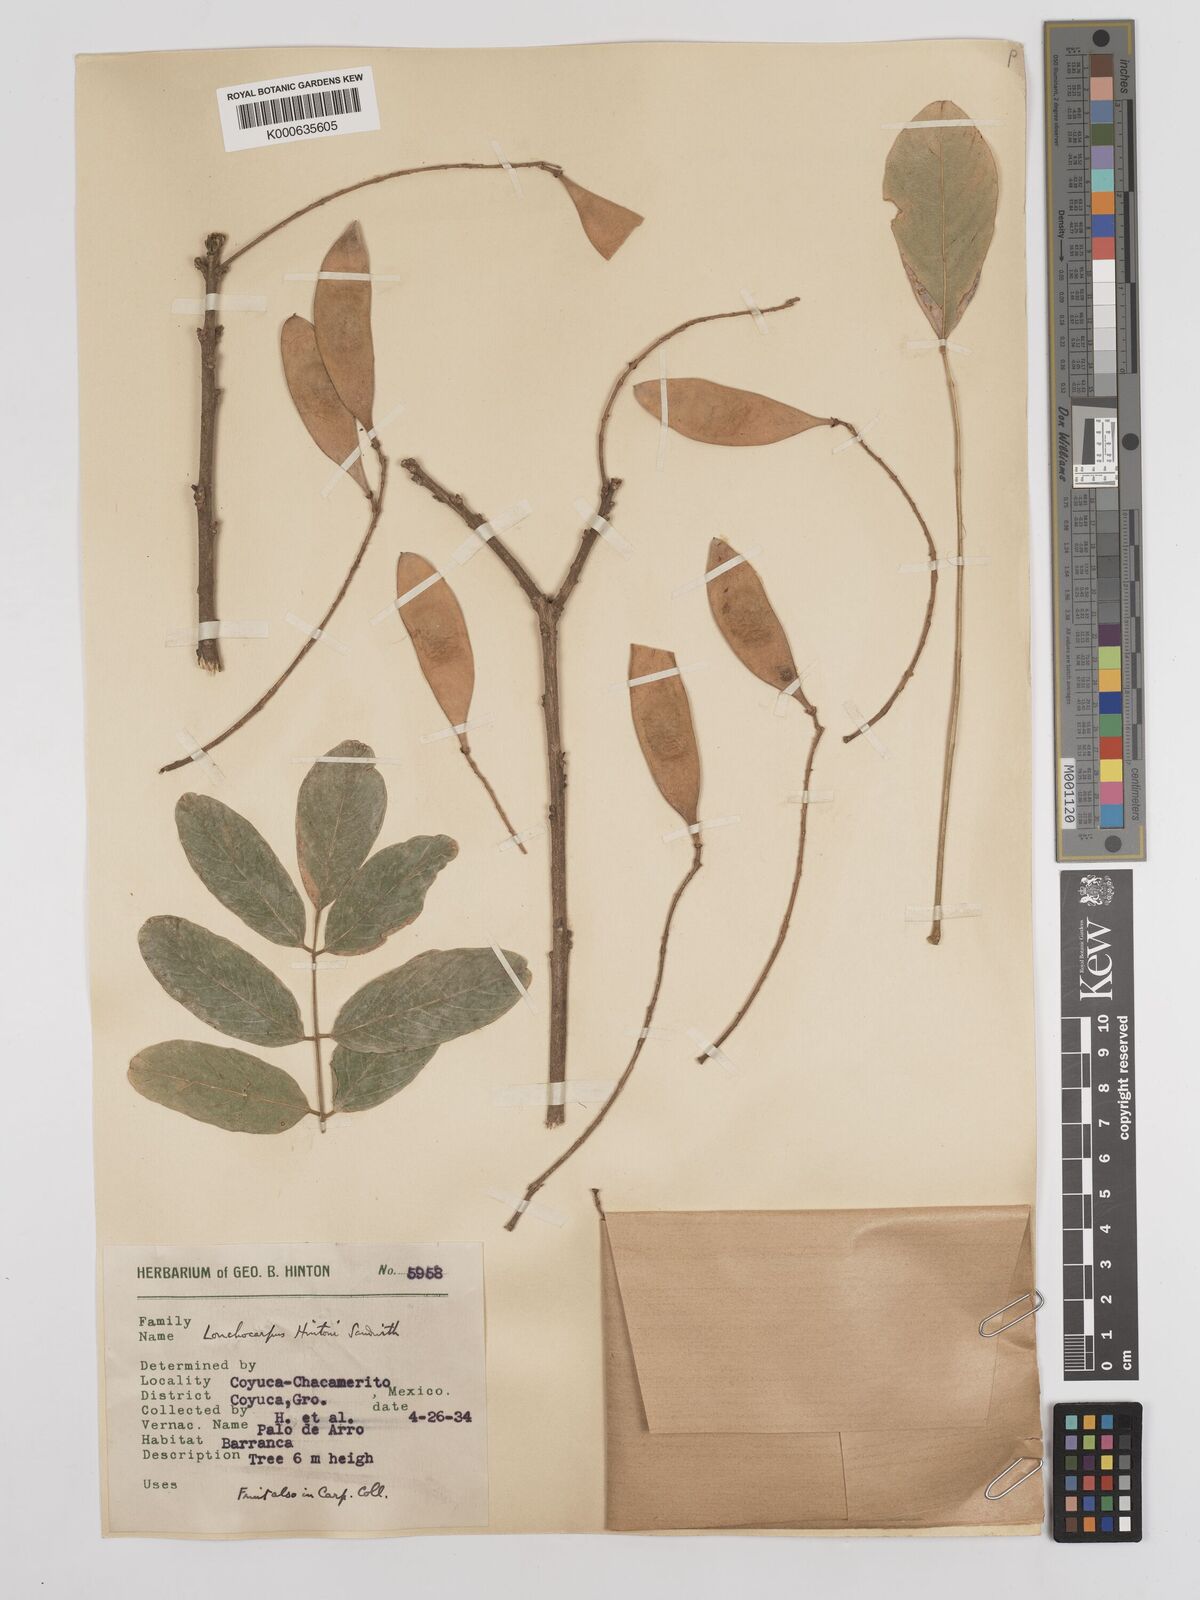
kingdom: Plantae
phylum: Tracheophyta
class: Magnoliopsida
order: Fabales
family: Fabaceae
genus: Lonchocarpus
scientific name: Lonchocarpus hintonii
